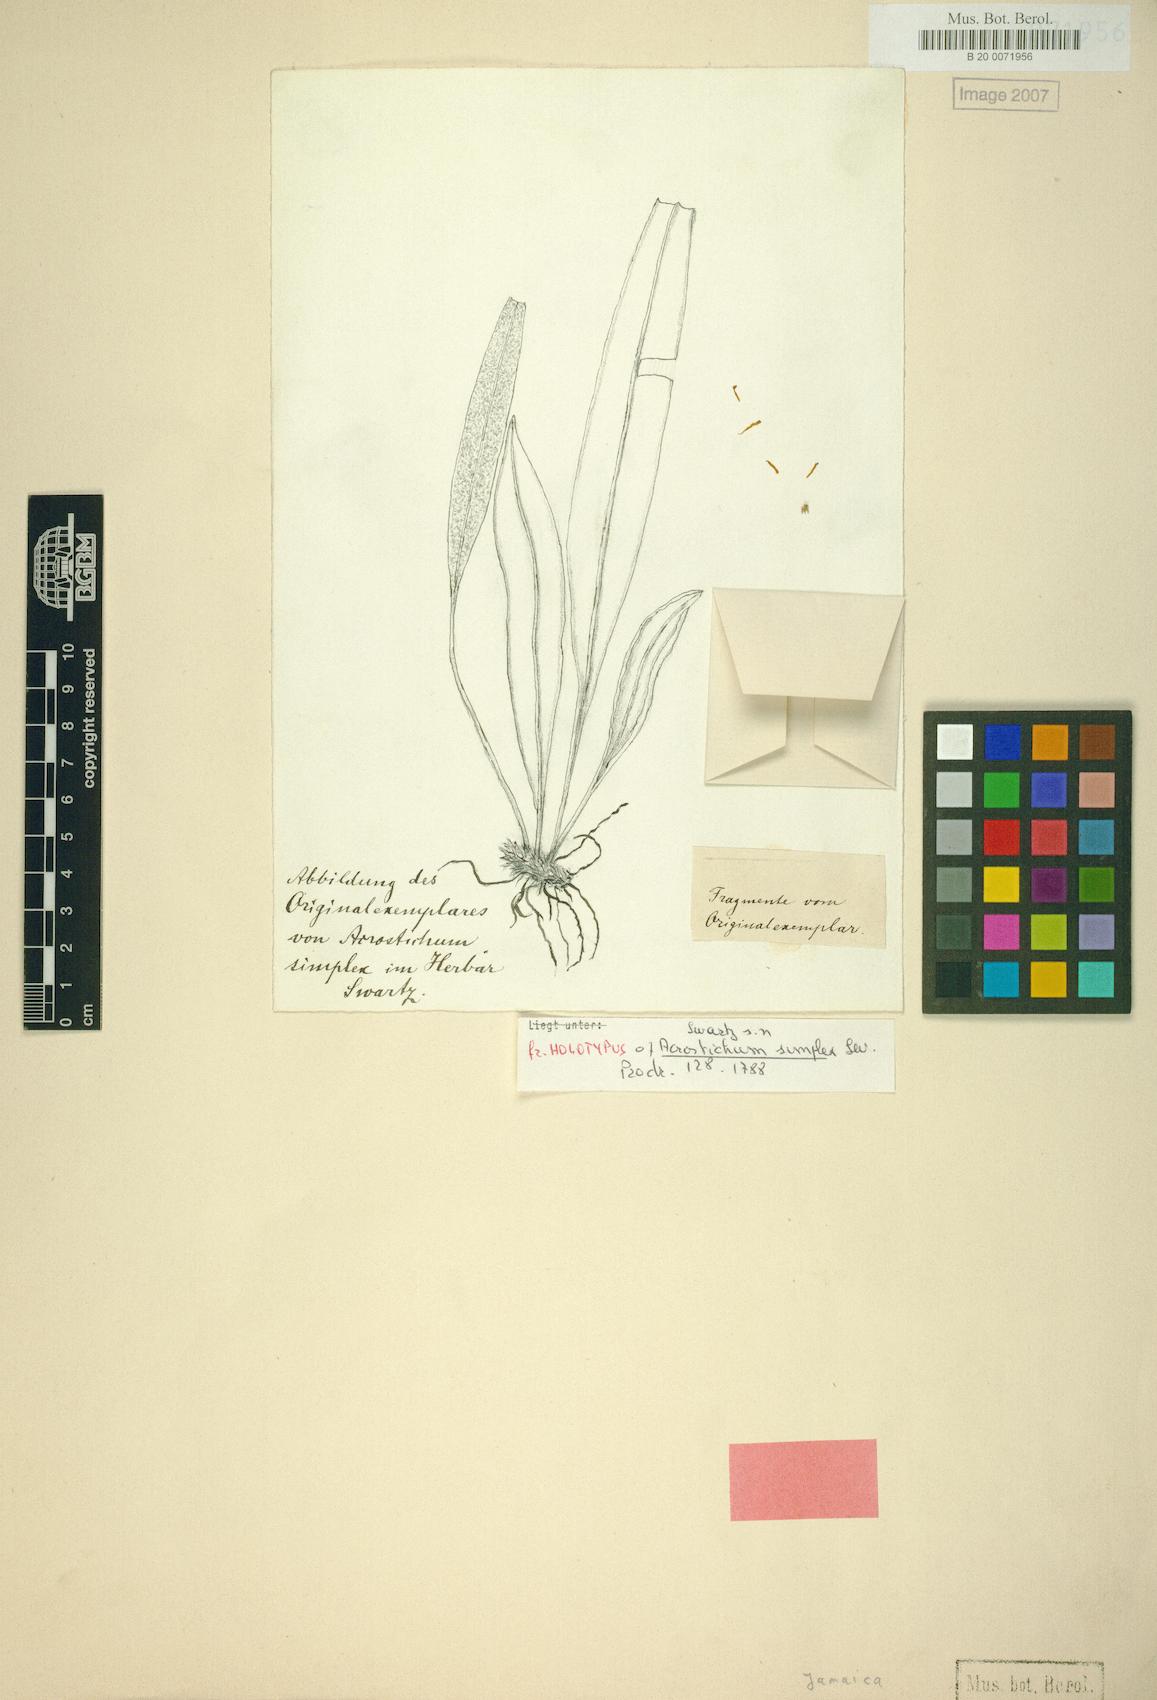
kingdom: Plantae
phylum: Tracheophyta
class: Polypodiopsida
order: Polypodiales
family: Dryopteridaceae
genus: Elaphoglossum
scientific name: Elaphoglossum simplex
